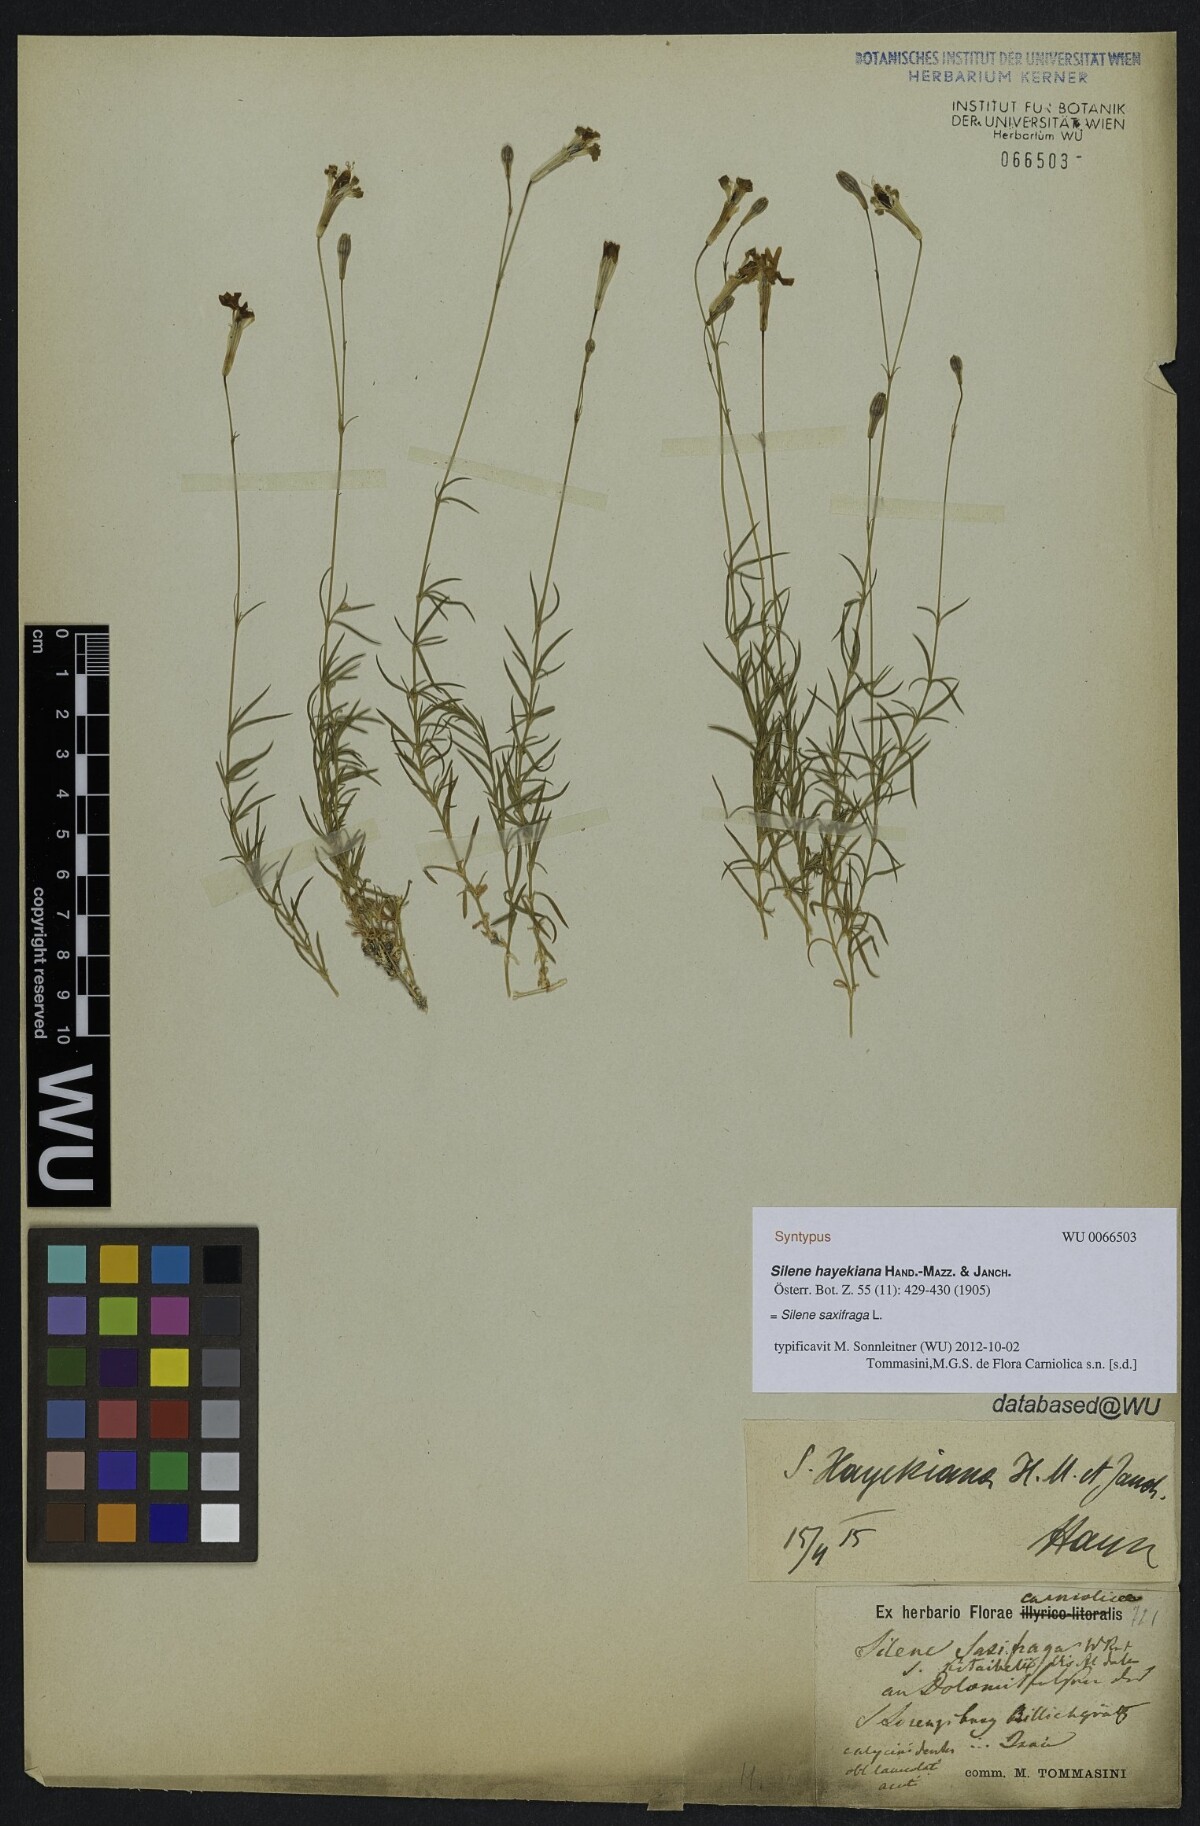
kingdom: Plantae
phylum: Tracheophyta
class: Magnoliopsida
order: Caryophyllales
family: Caryophyllaceae
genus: Silene
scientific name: Silene hayekiana
